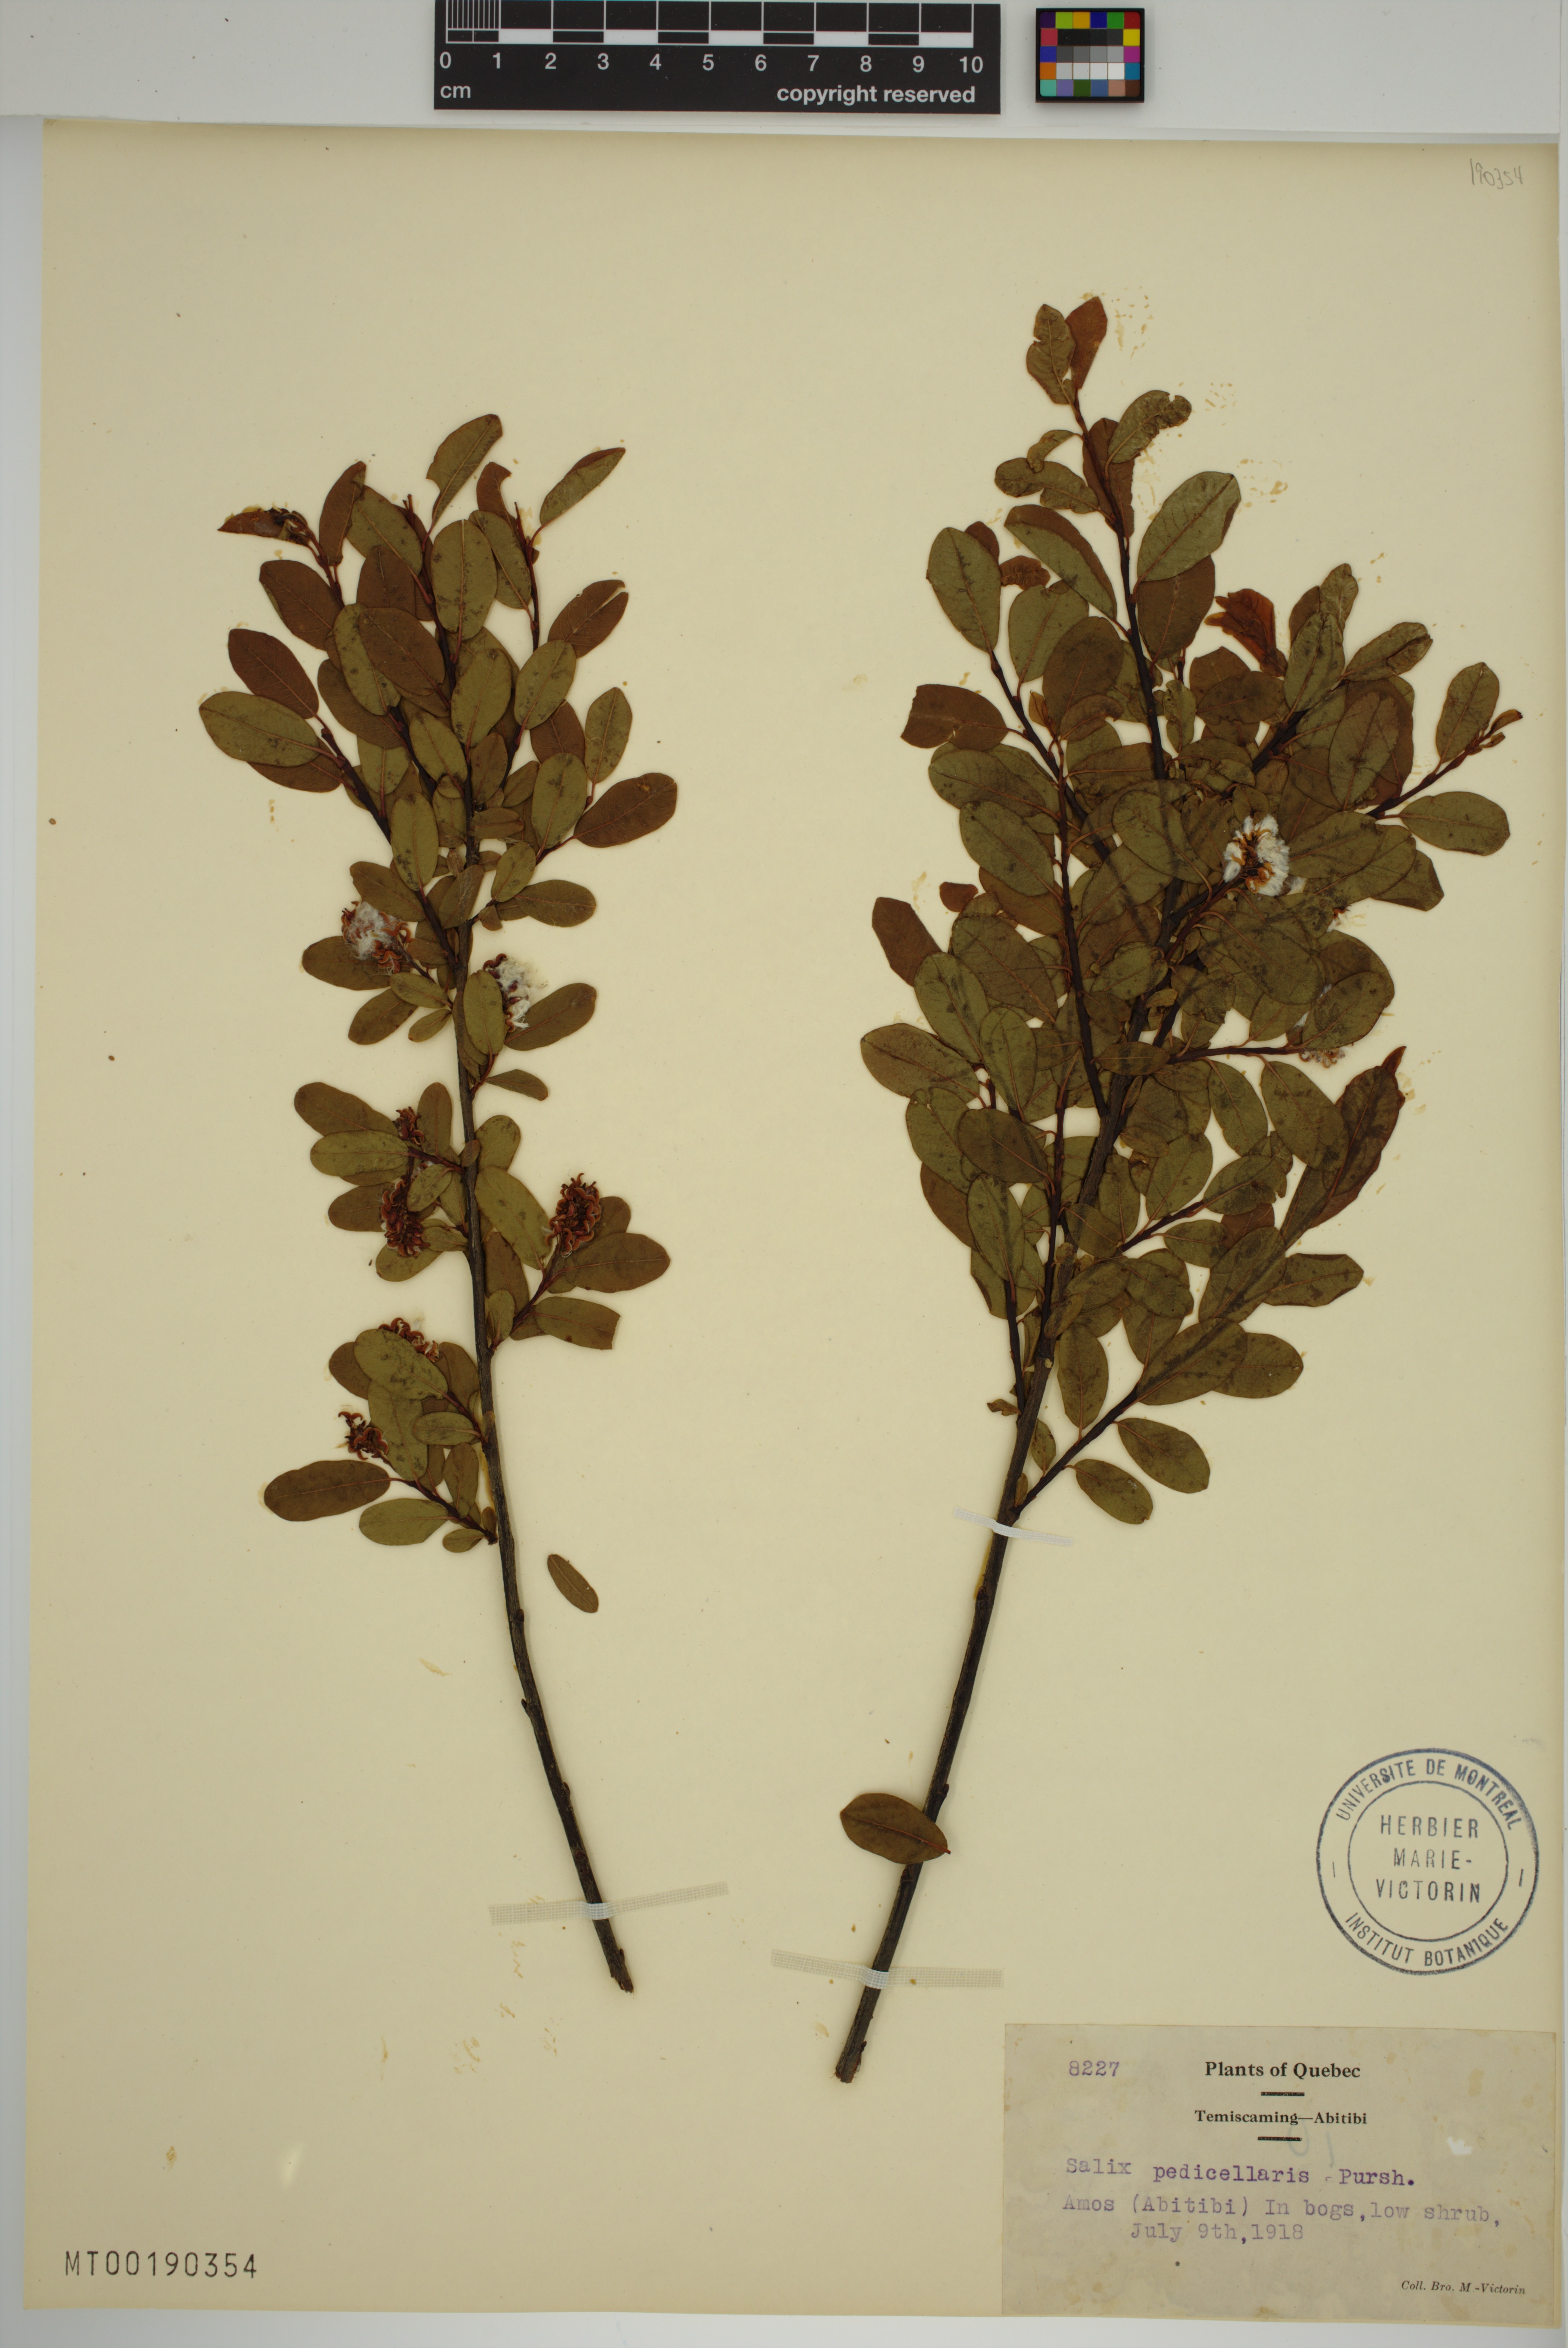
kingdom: Plantae
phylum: Tracheophyta
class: Magnoliopsida
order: Malpighiales
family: Salicaceae
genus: Salix
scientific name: Salix pedicellaris
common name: Bog willow
